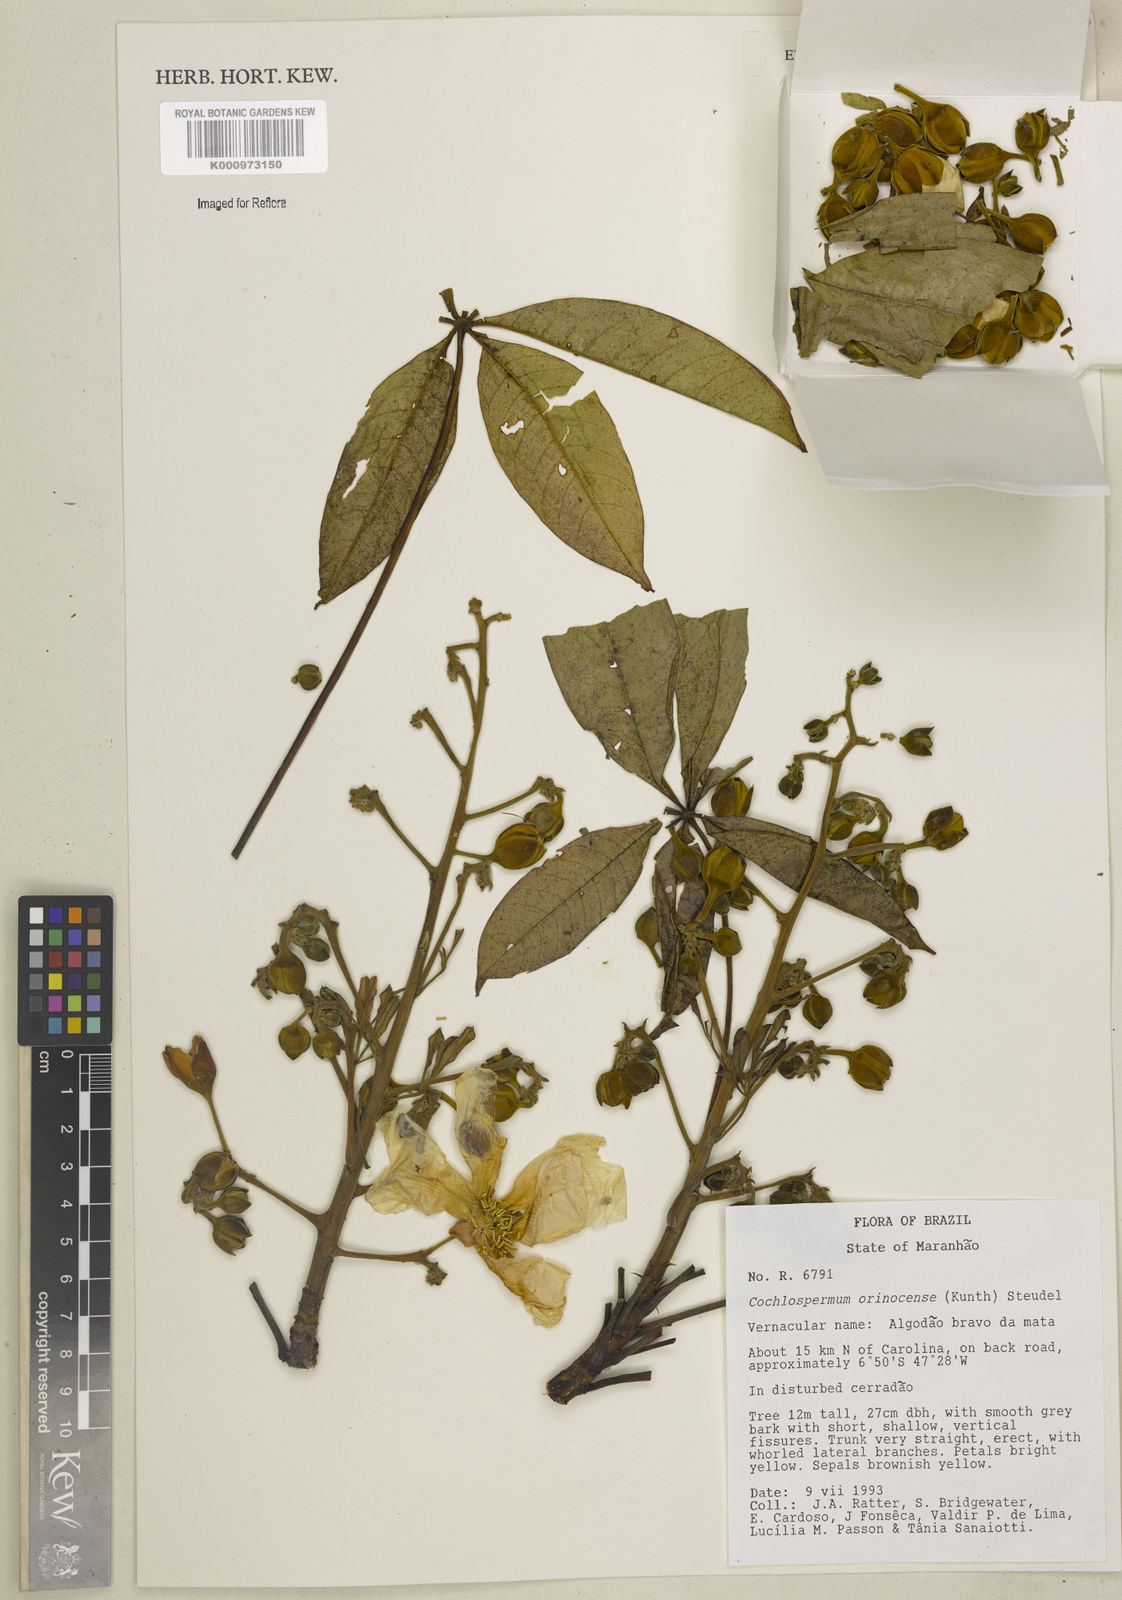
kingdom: Plantae
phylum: Tracheophyta
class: Magnoliopsida
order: Malvales
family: Cochlospermaceae
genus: Cochlospermum
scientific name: Cochlospermum orinocense
